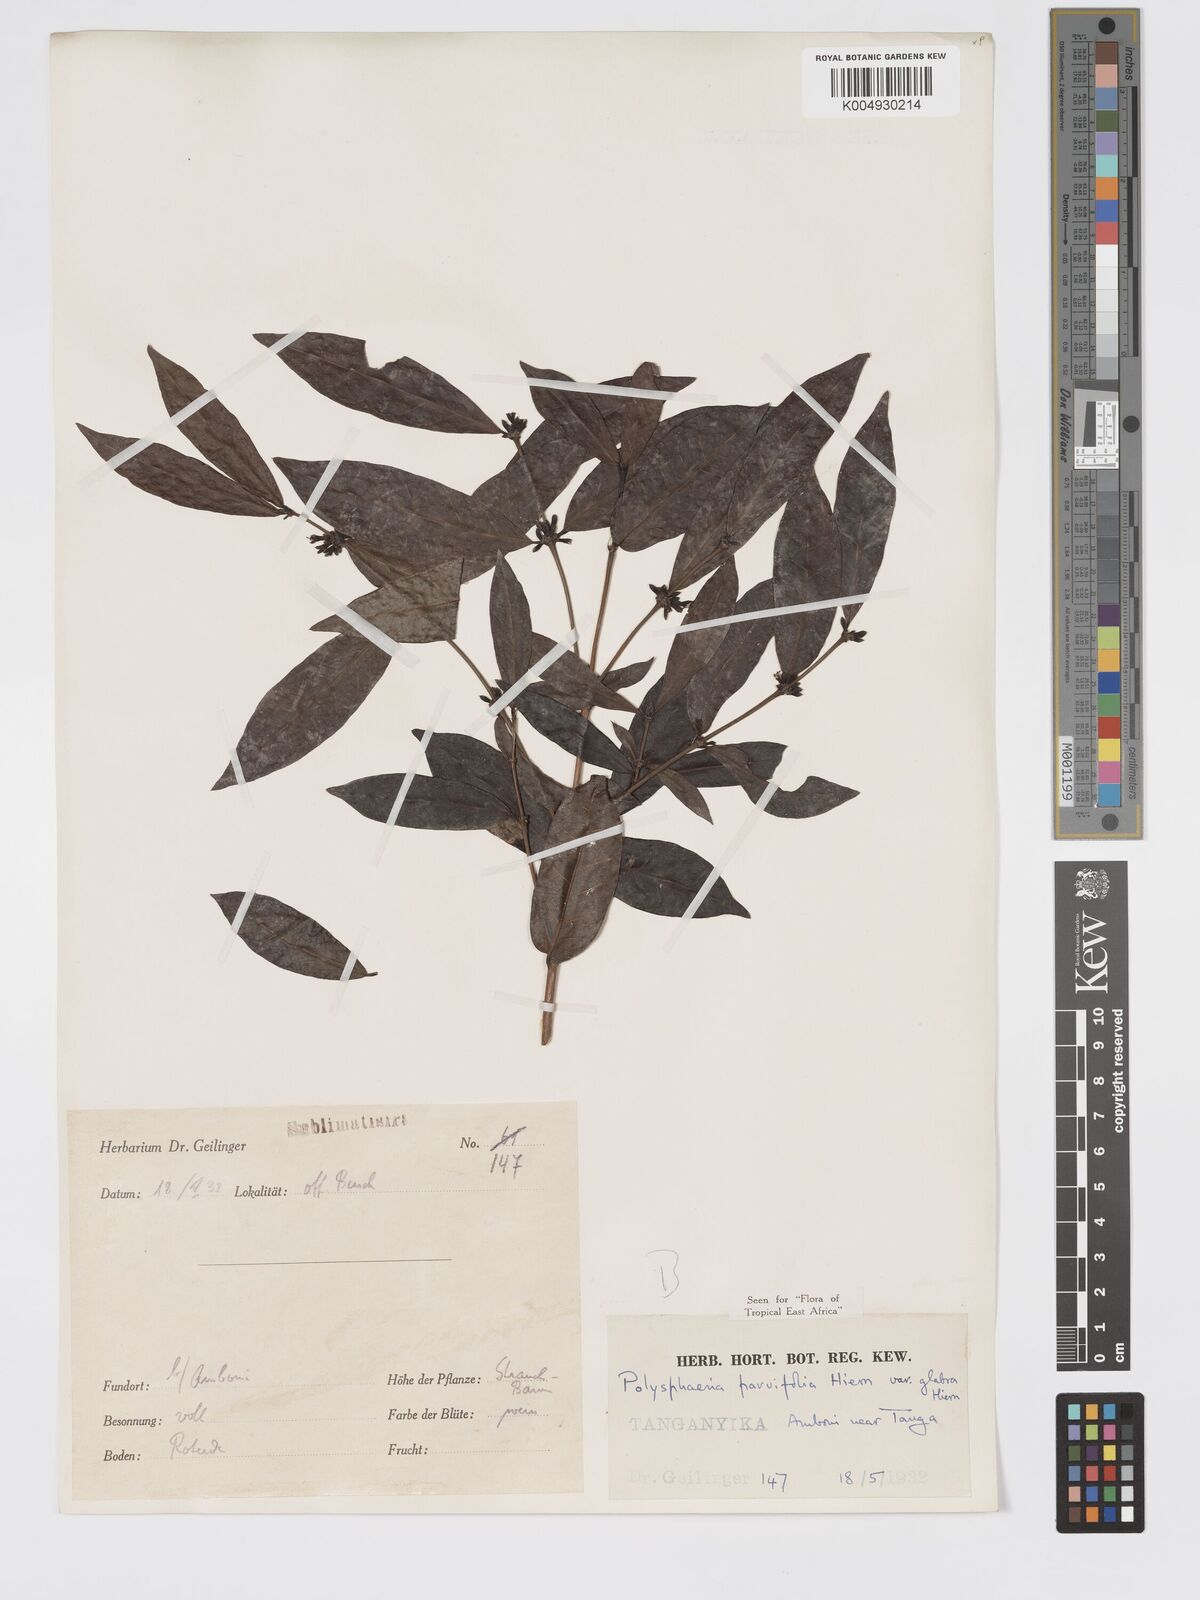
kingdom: Plantae
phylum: Tracheophyta
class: Magnoliopsida
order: Gentianales
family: Rubiaceae
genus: Polysphaeria
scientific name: Polysphaeria parvifolia
